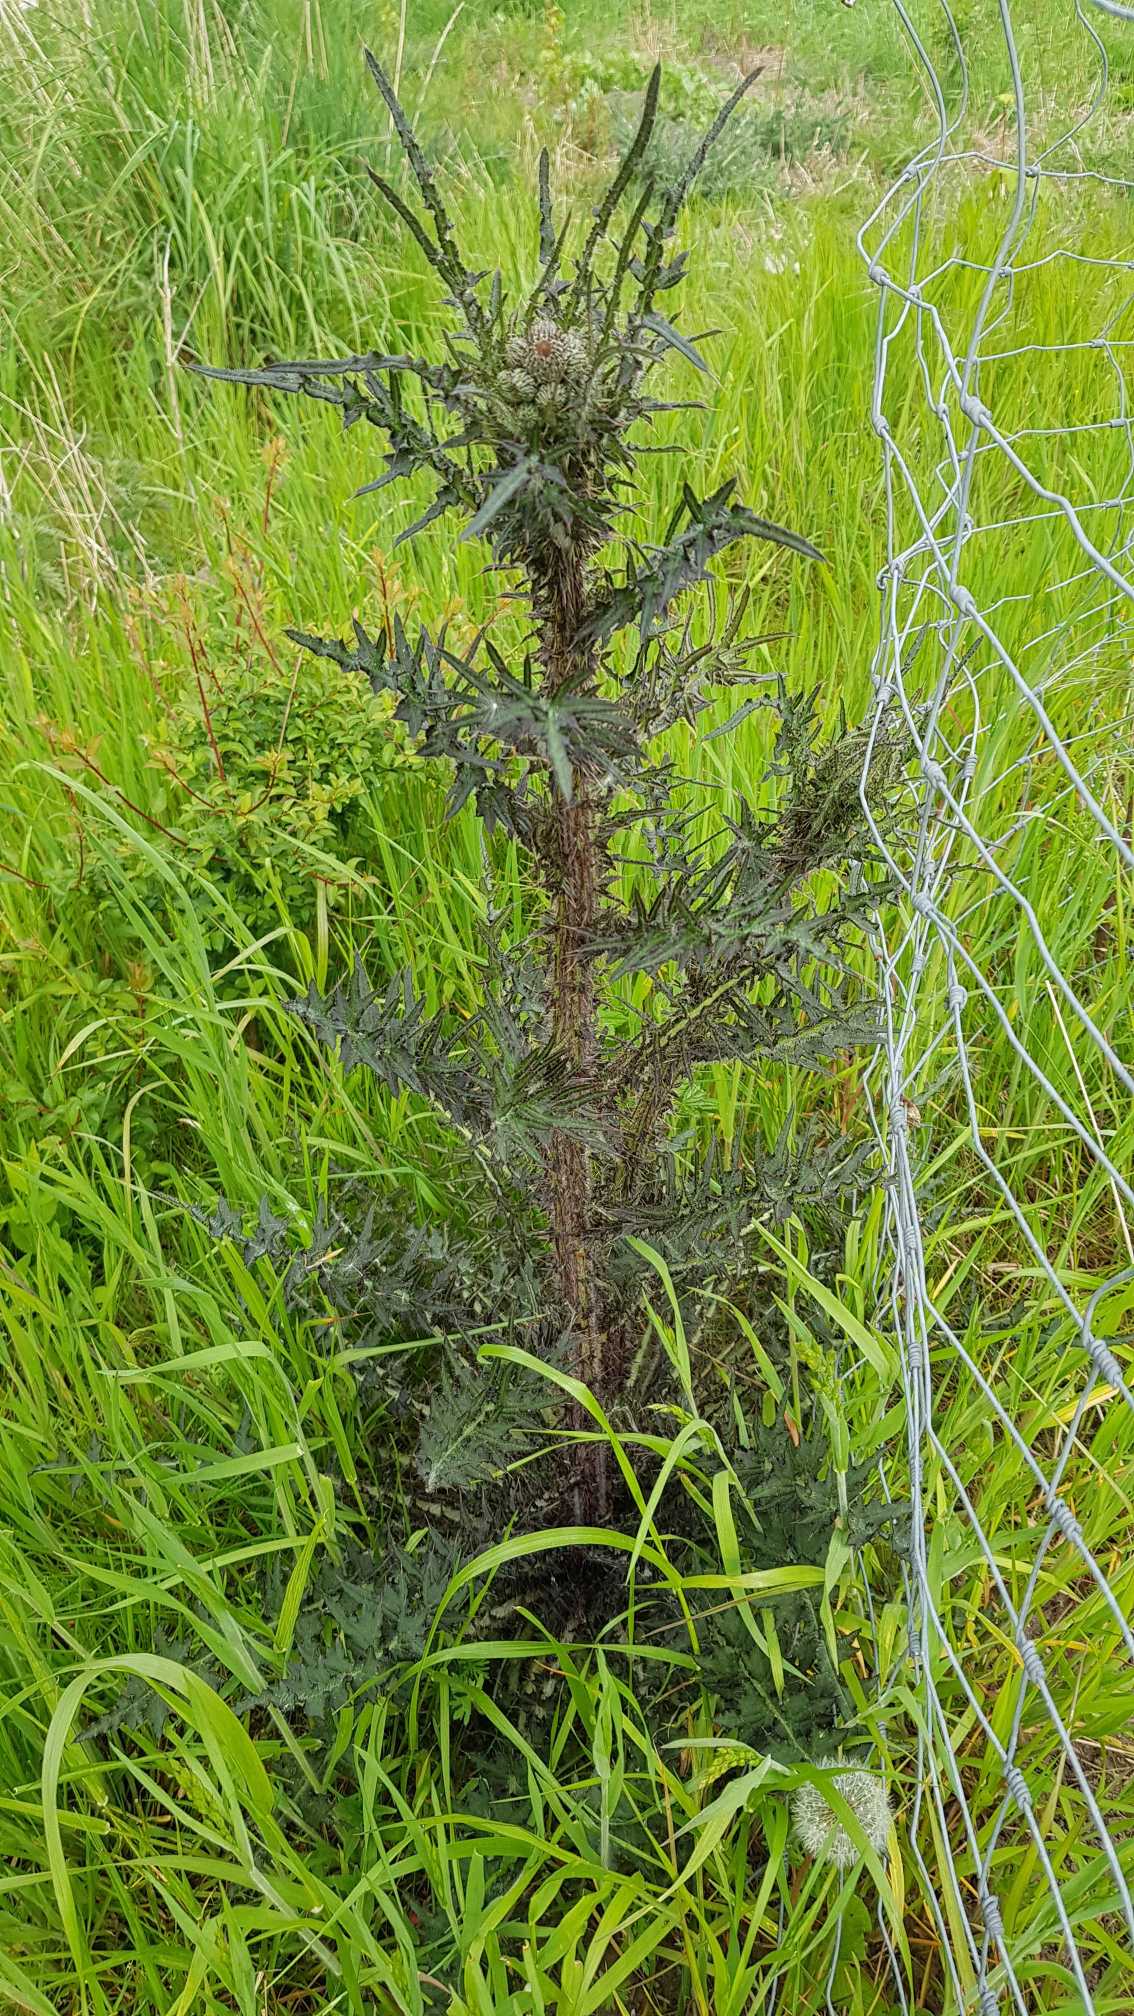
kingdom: Plantae
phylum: Tracheophyta
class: Magnoliopsida
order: Asterales
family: Asteraceae
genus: Cirsium
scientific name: Cirsium palustre
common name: Kær-tidsel
